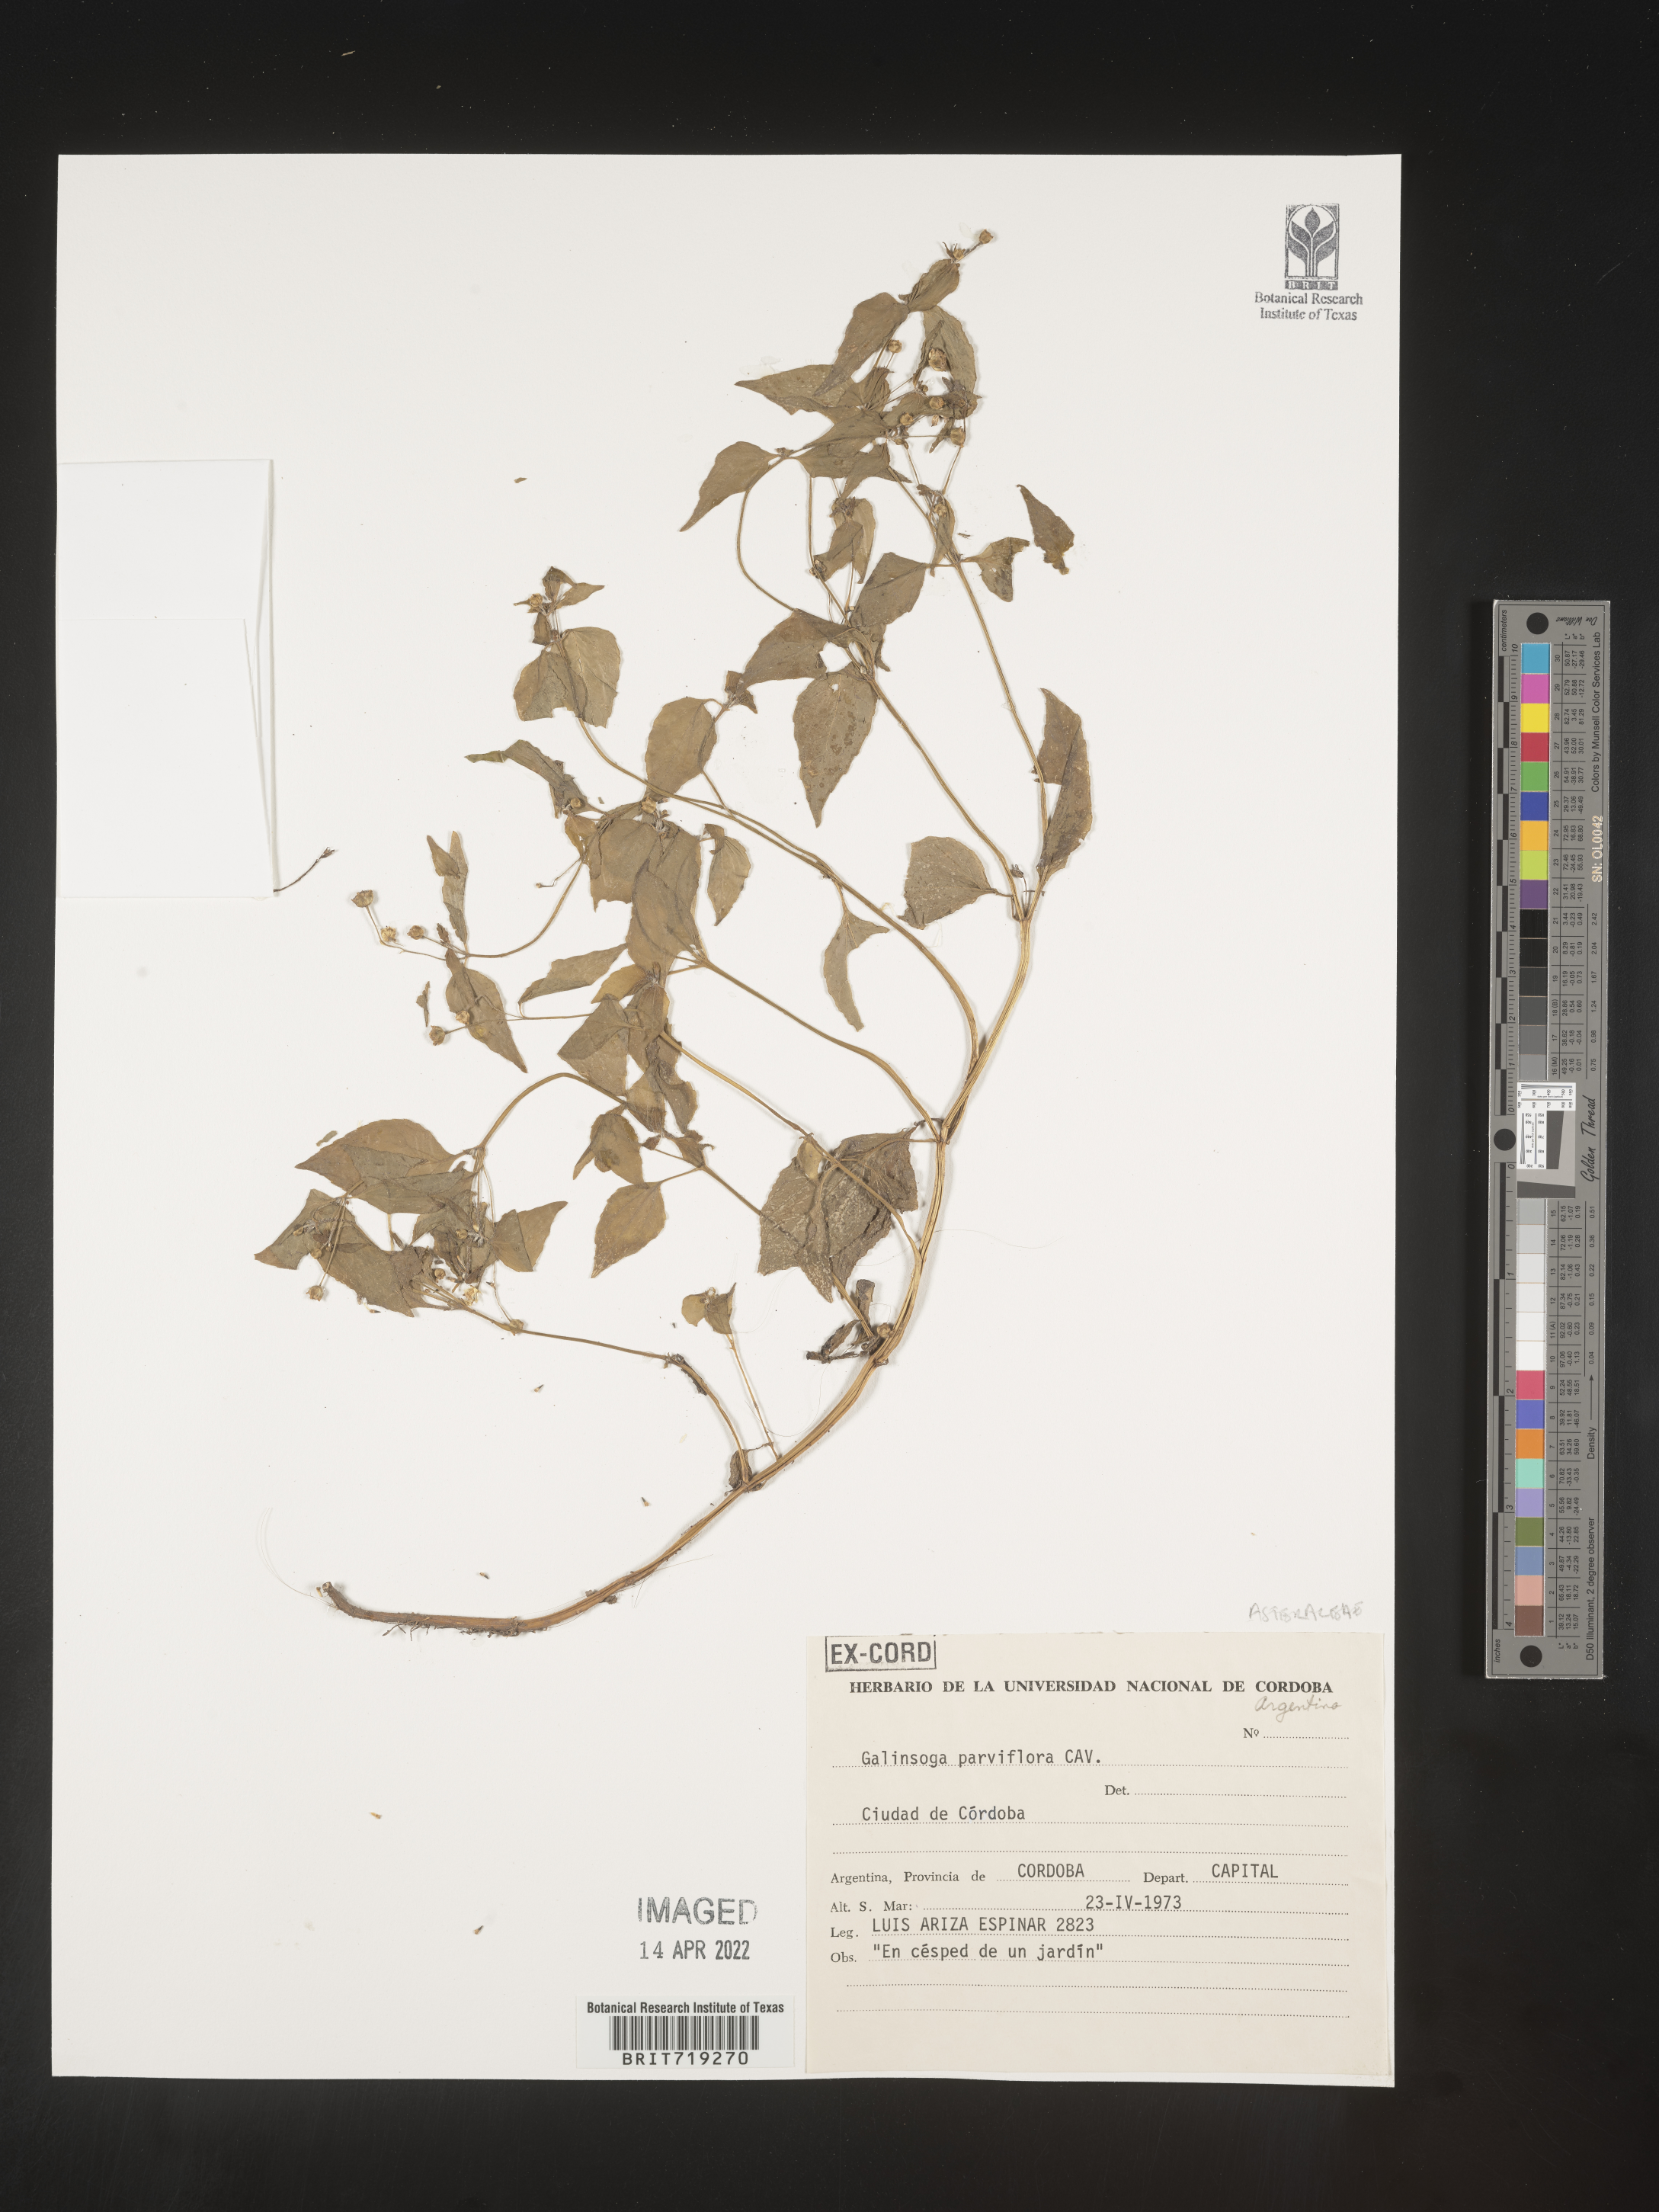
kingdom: Plantae
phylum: Tracheophyta
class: Magnoliopsida
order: Asterales
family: Asteraceae
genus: Galinsoga
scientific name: Galinsoga
